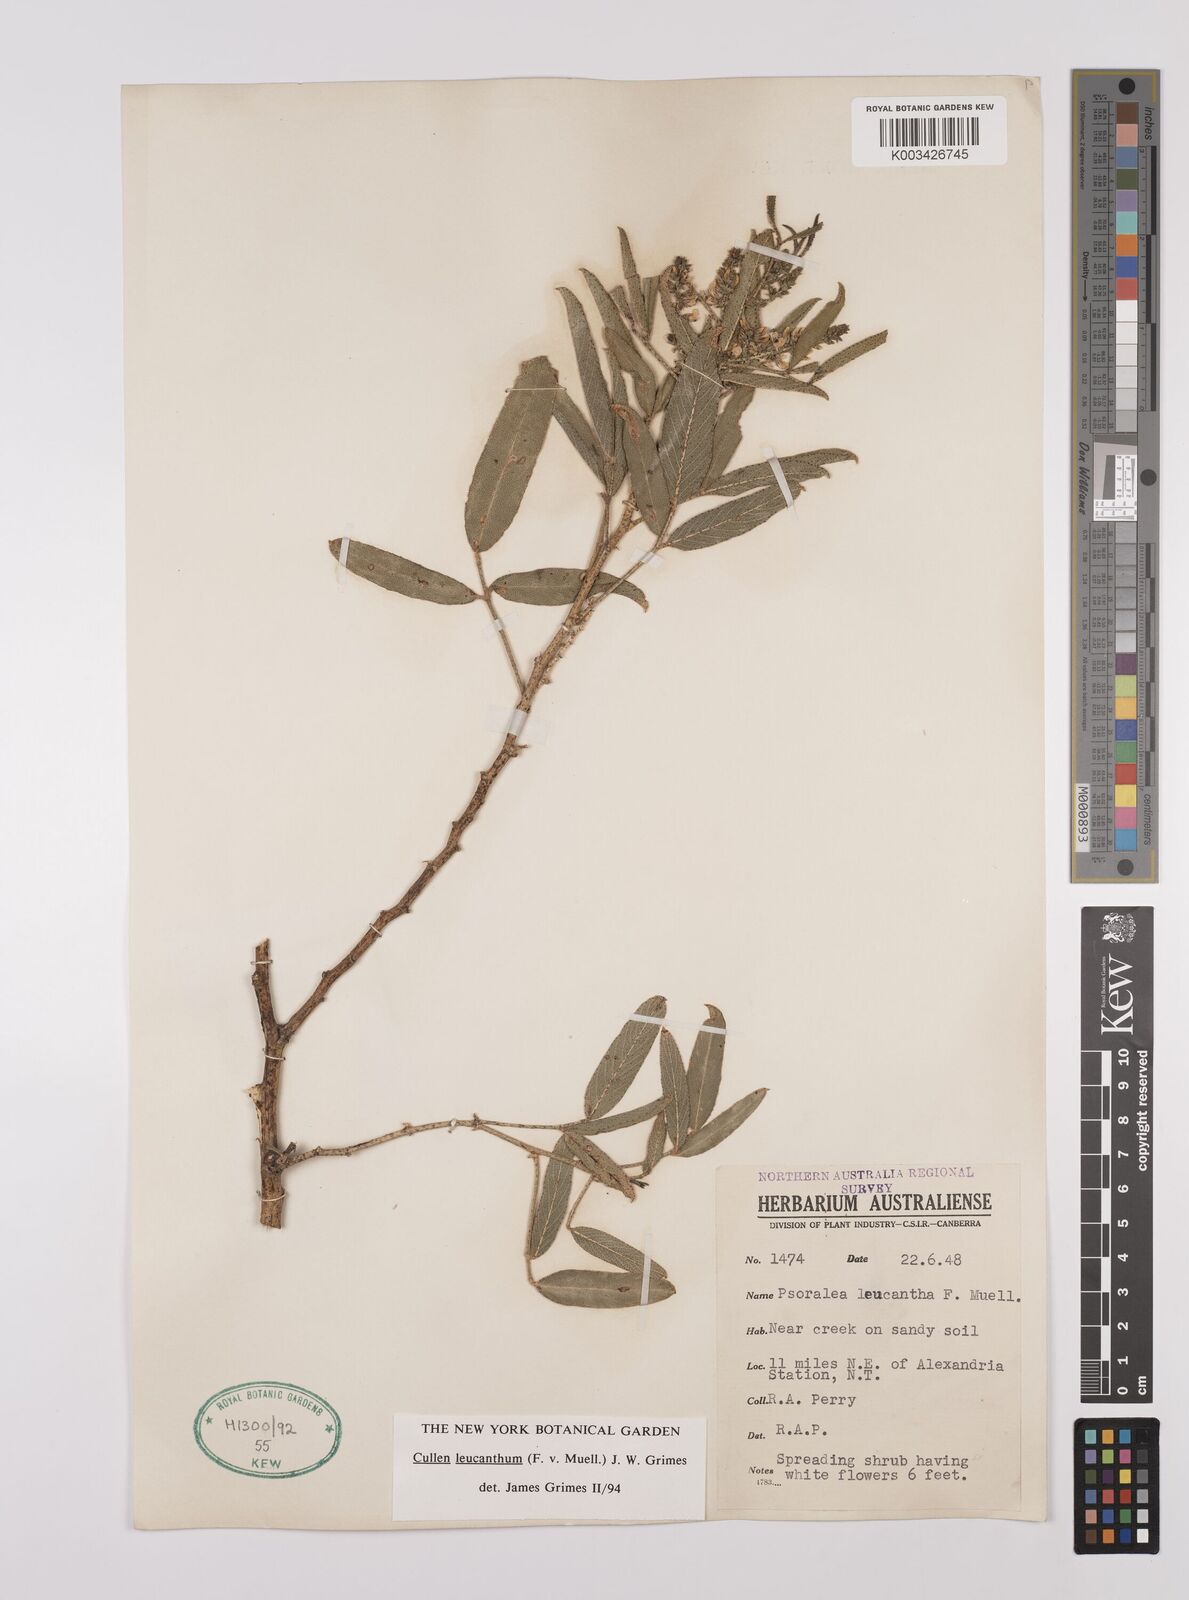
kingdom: Plantae
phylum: Tracheophyta
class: Magnoliopsida
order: Fabales
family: Fabaceae
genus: Cullen
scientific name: Cullen leucanthum
